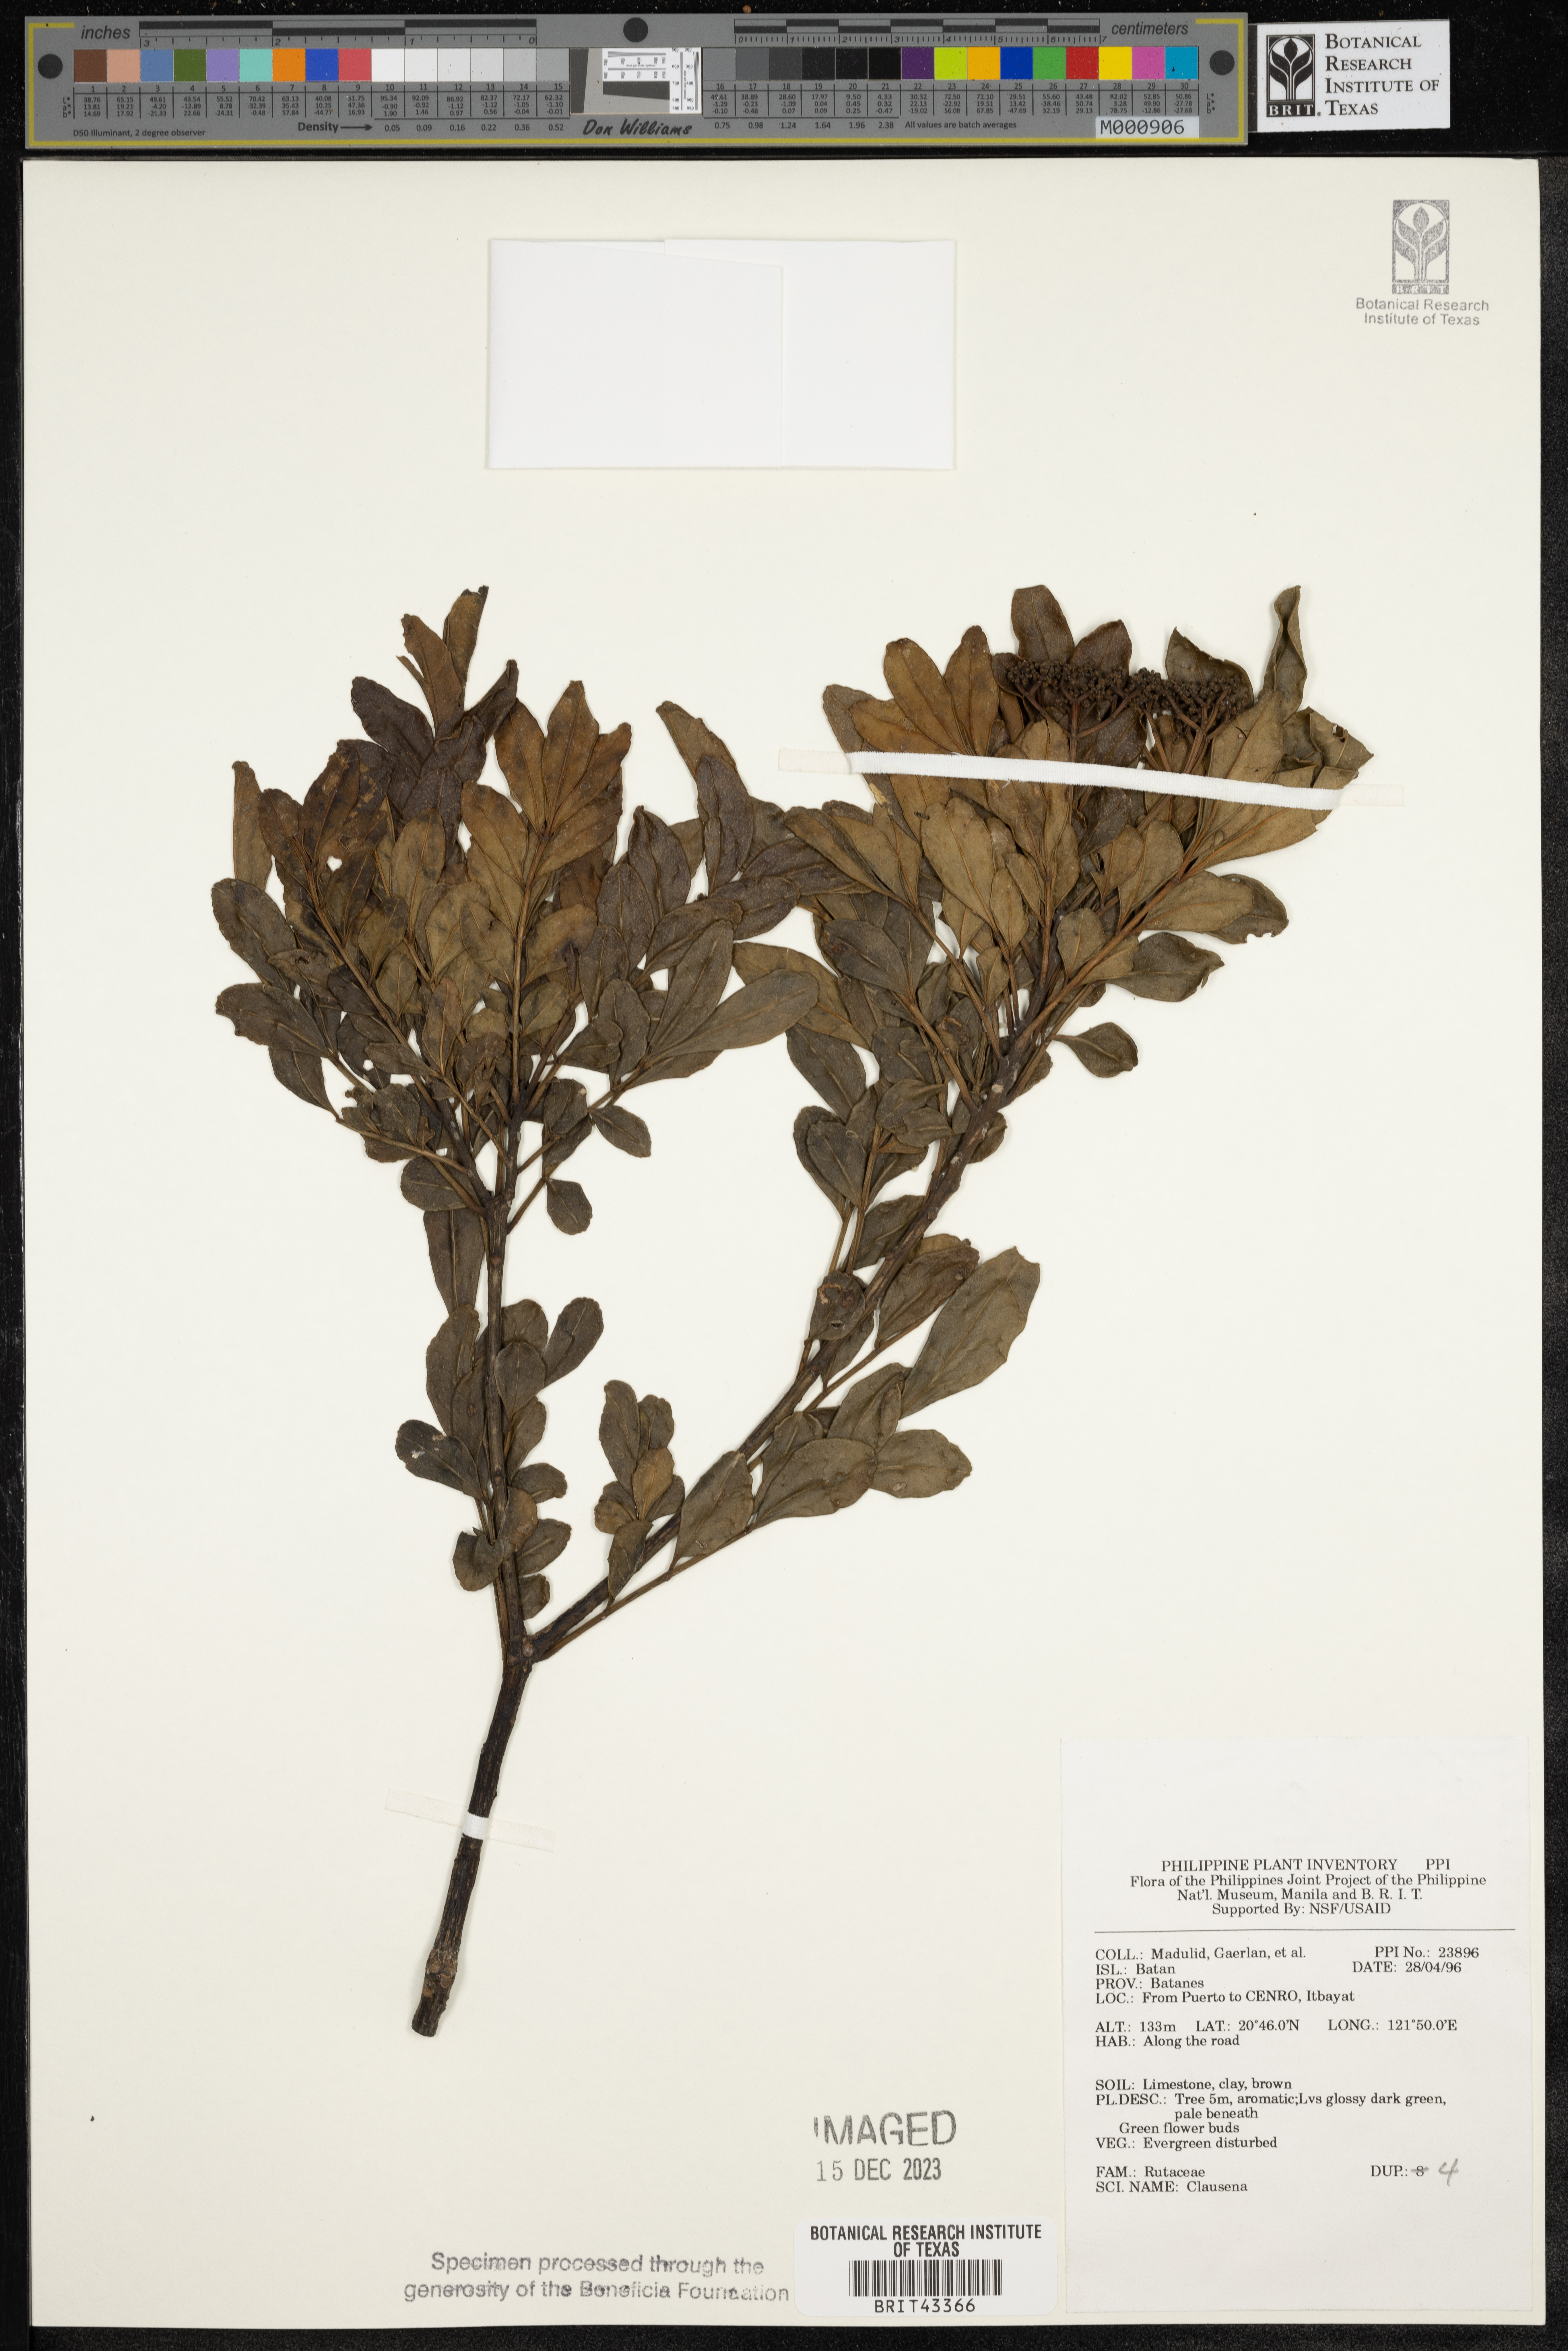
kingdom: Plantae
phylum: Tracheophyta
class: Magnoliopsida
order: Sapindales
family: Rutaceae
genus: Clausena
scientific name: Clausena
